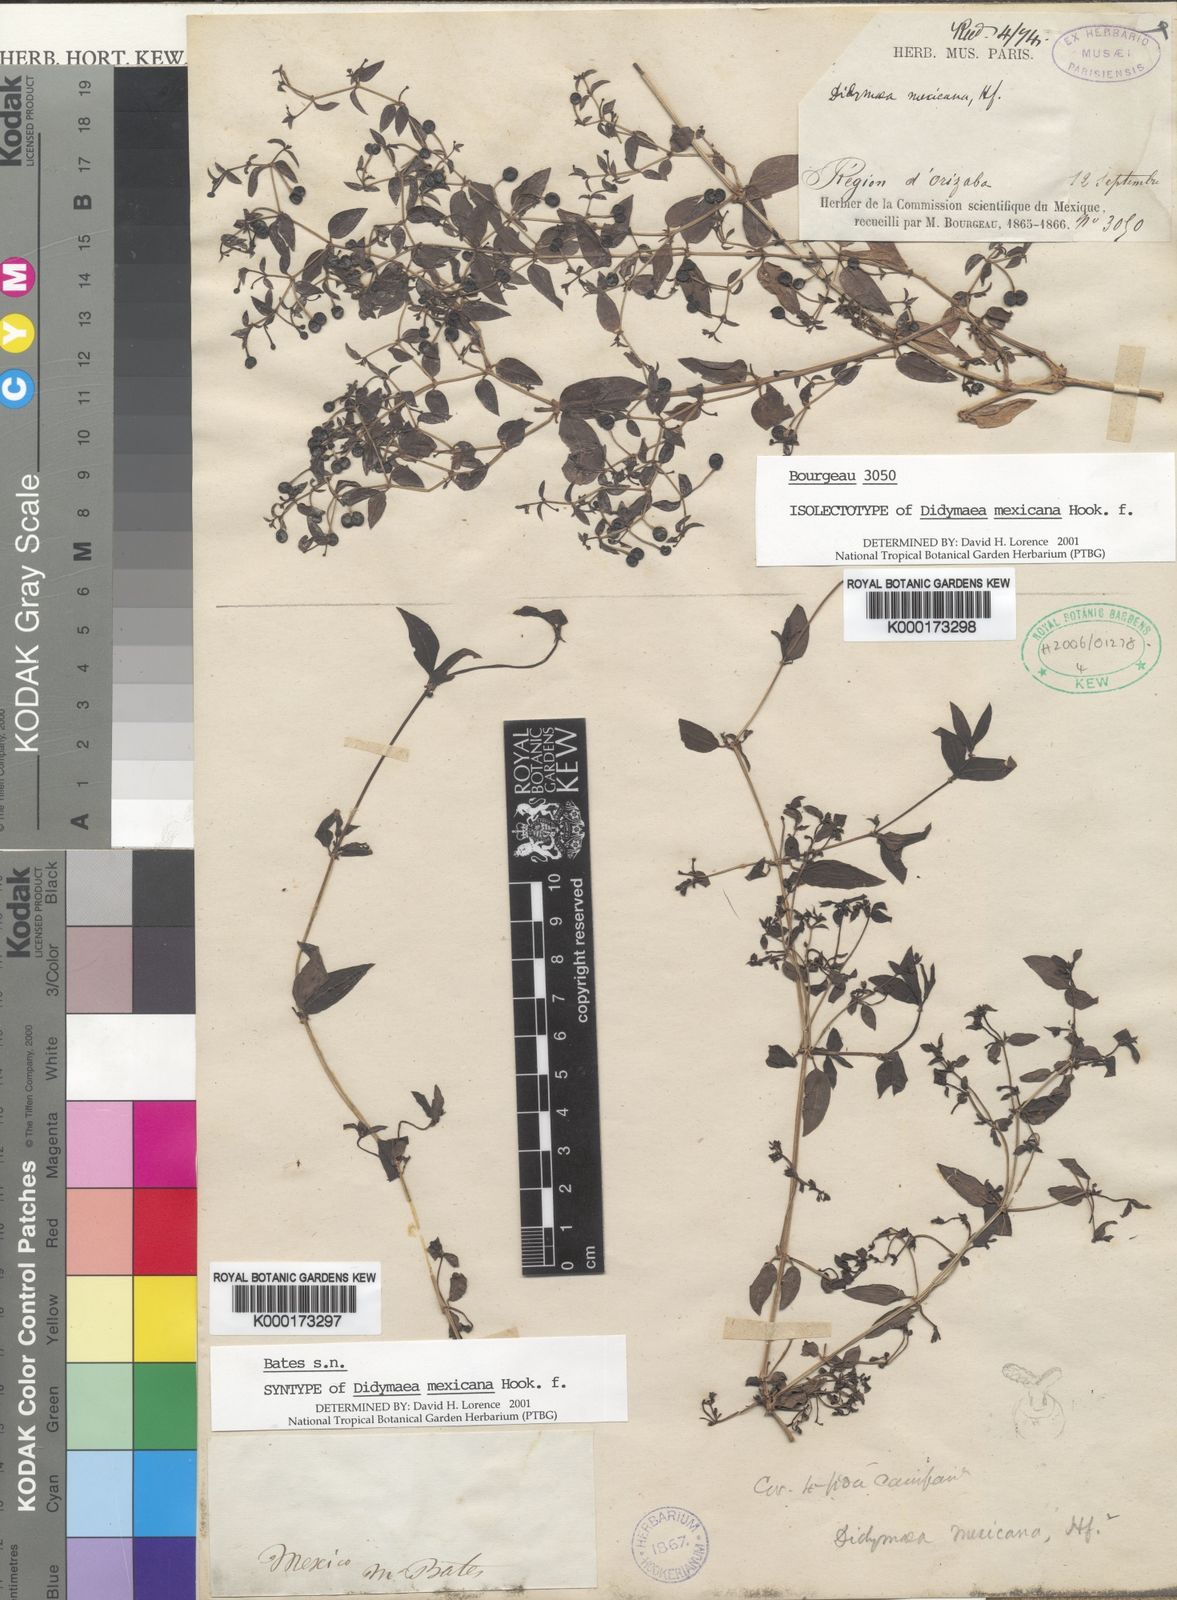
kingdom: Plantae
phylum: Tracheophyta
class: Magnoliopsida
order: Gentianales
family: Rubiaceae
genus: Didymaea
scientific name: Didymaea alsinoides
